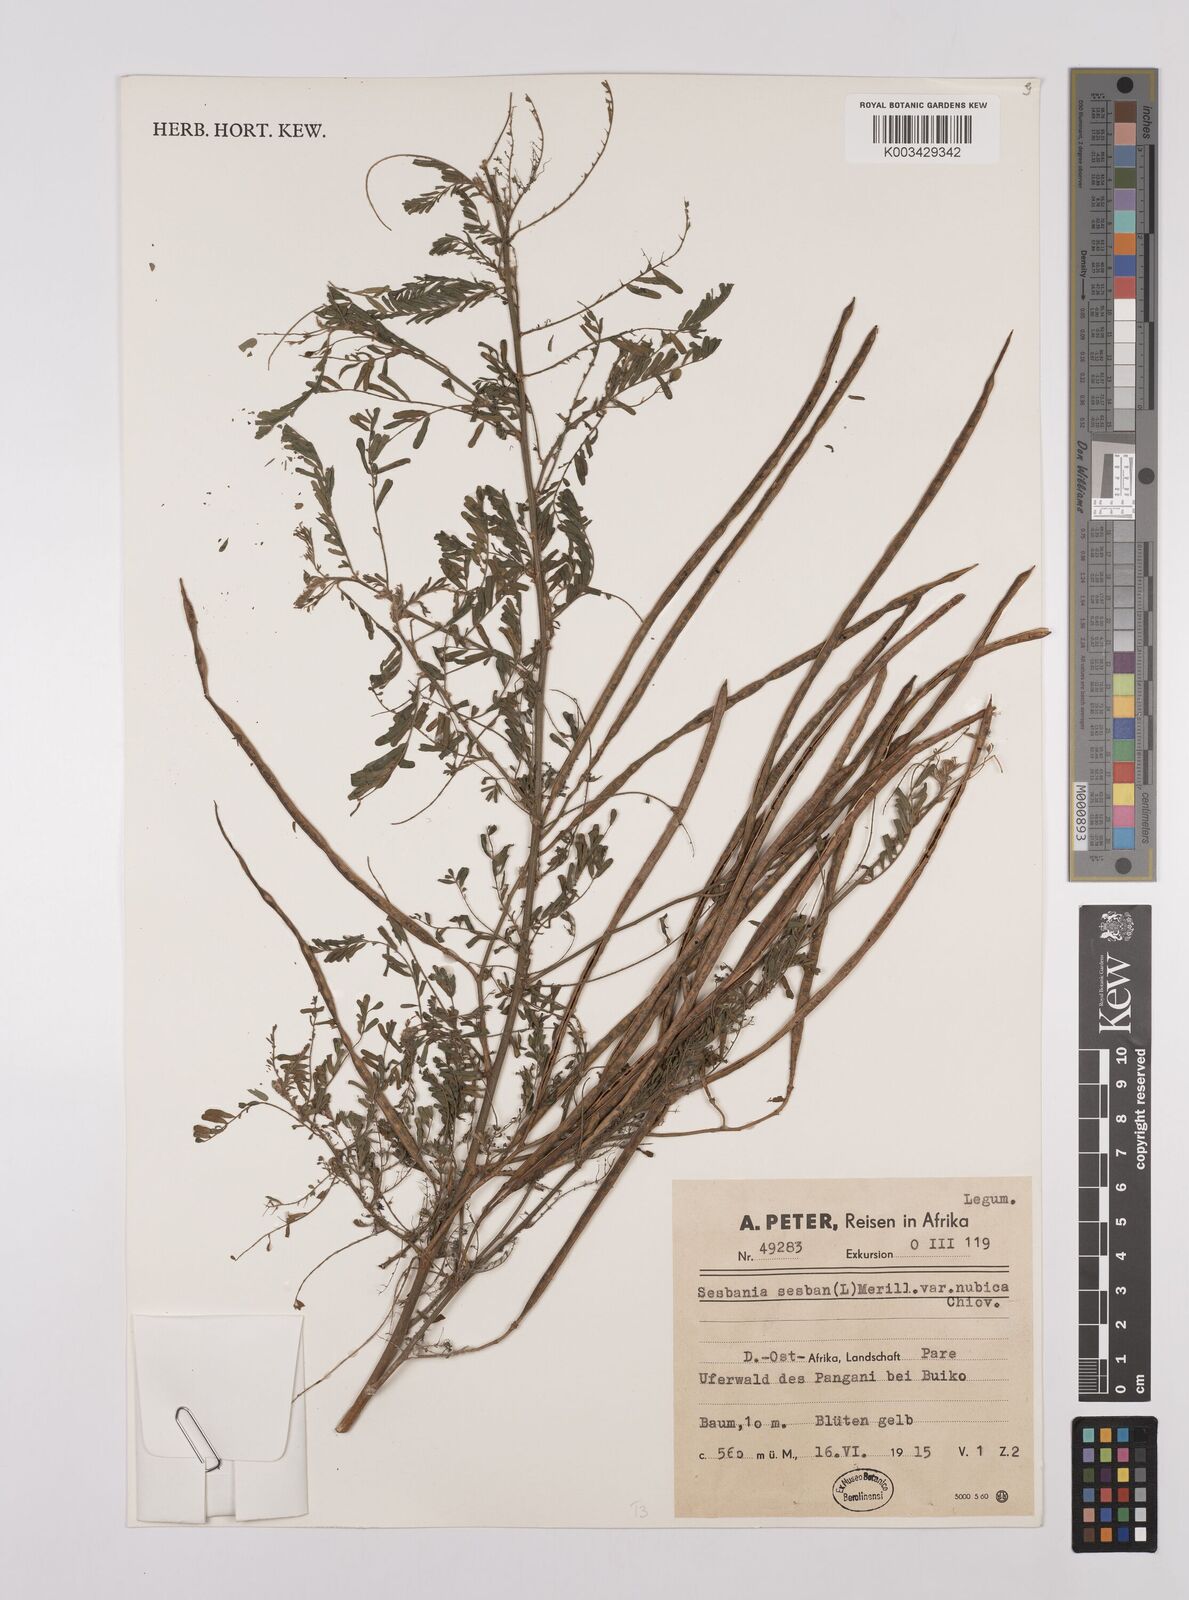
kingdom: Plantae
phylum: Tracheophyta
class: Magnoliopsida
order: Fabales
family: Fabaceae
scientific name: Fabaceae
